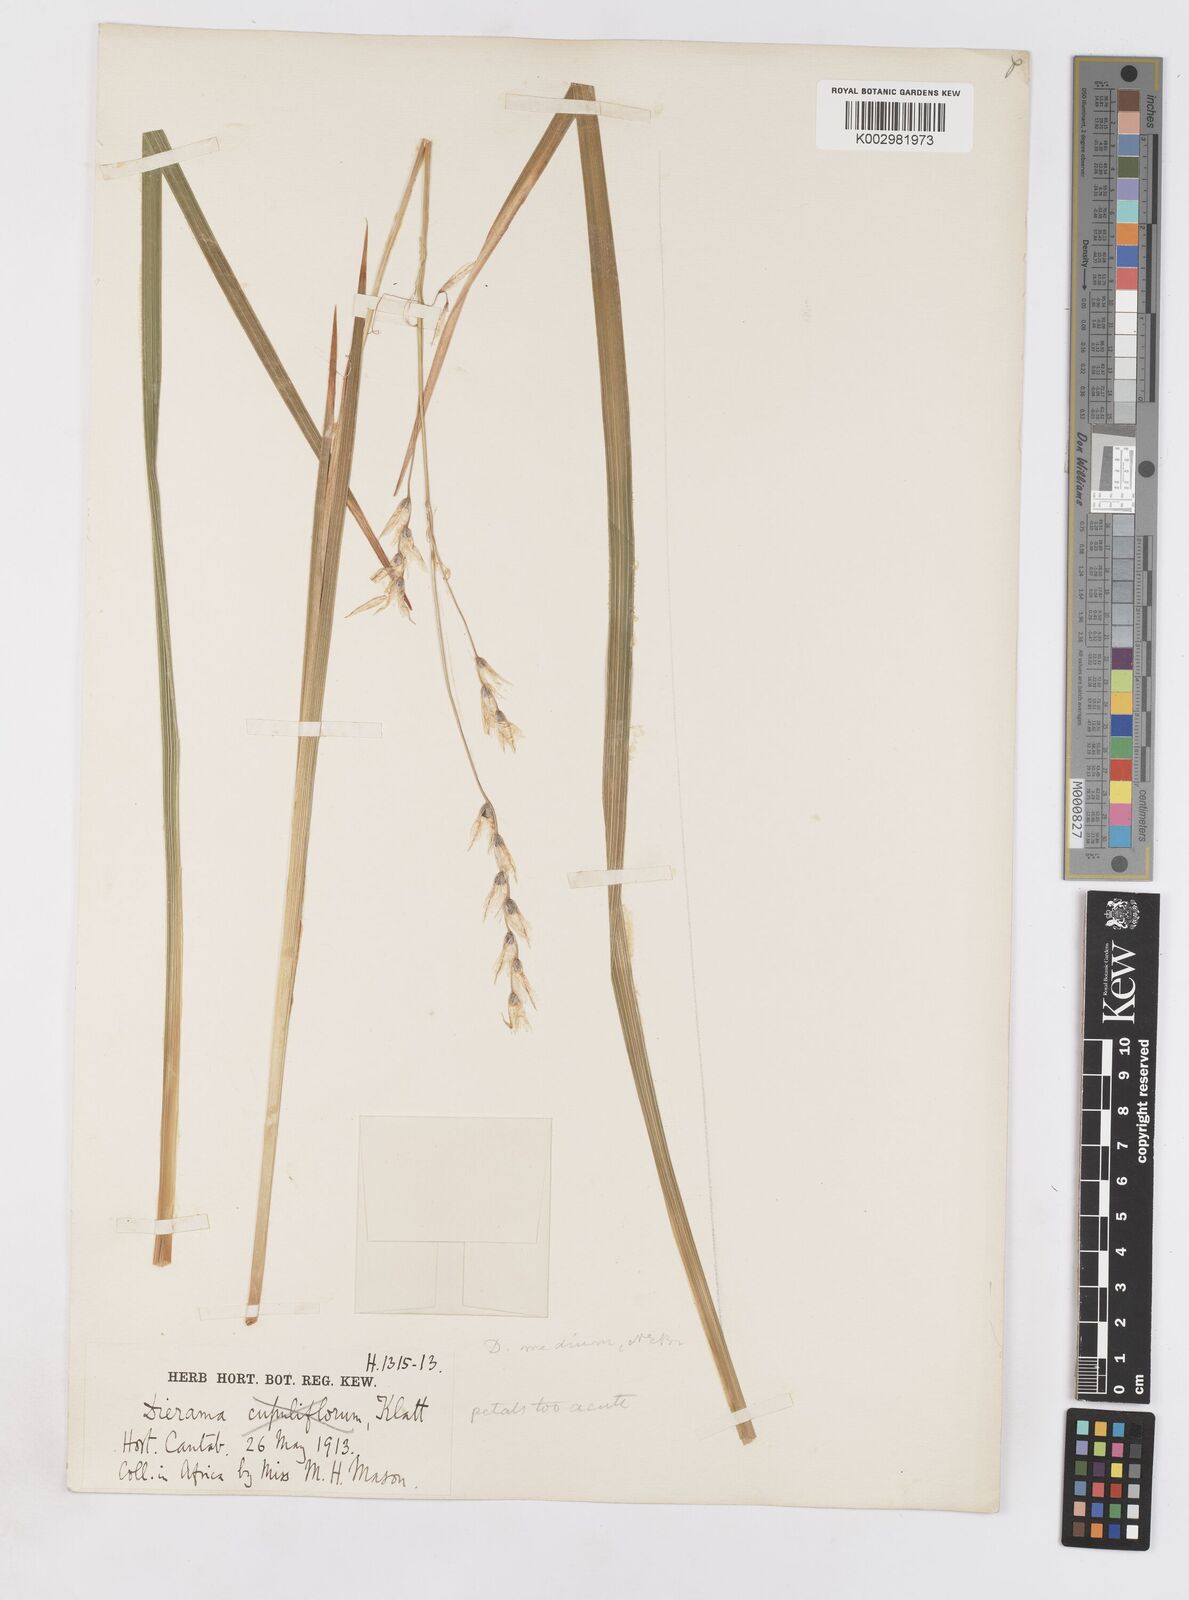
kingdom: Plantae
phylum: Tracheophyta
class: Liliopsida
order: Asparagales
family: Iridaceae
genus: Dierama
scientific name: Dierama medium
